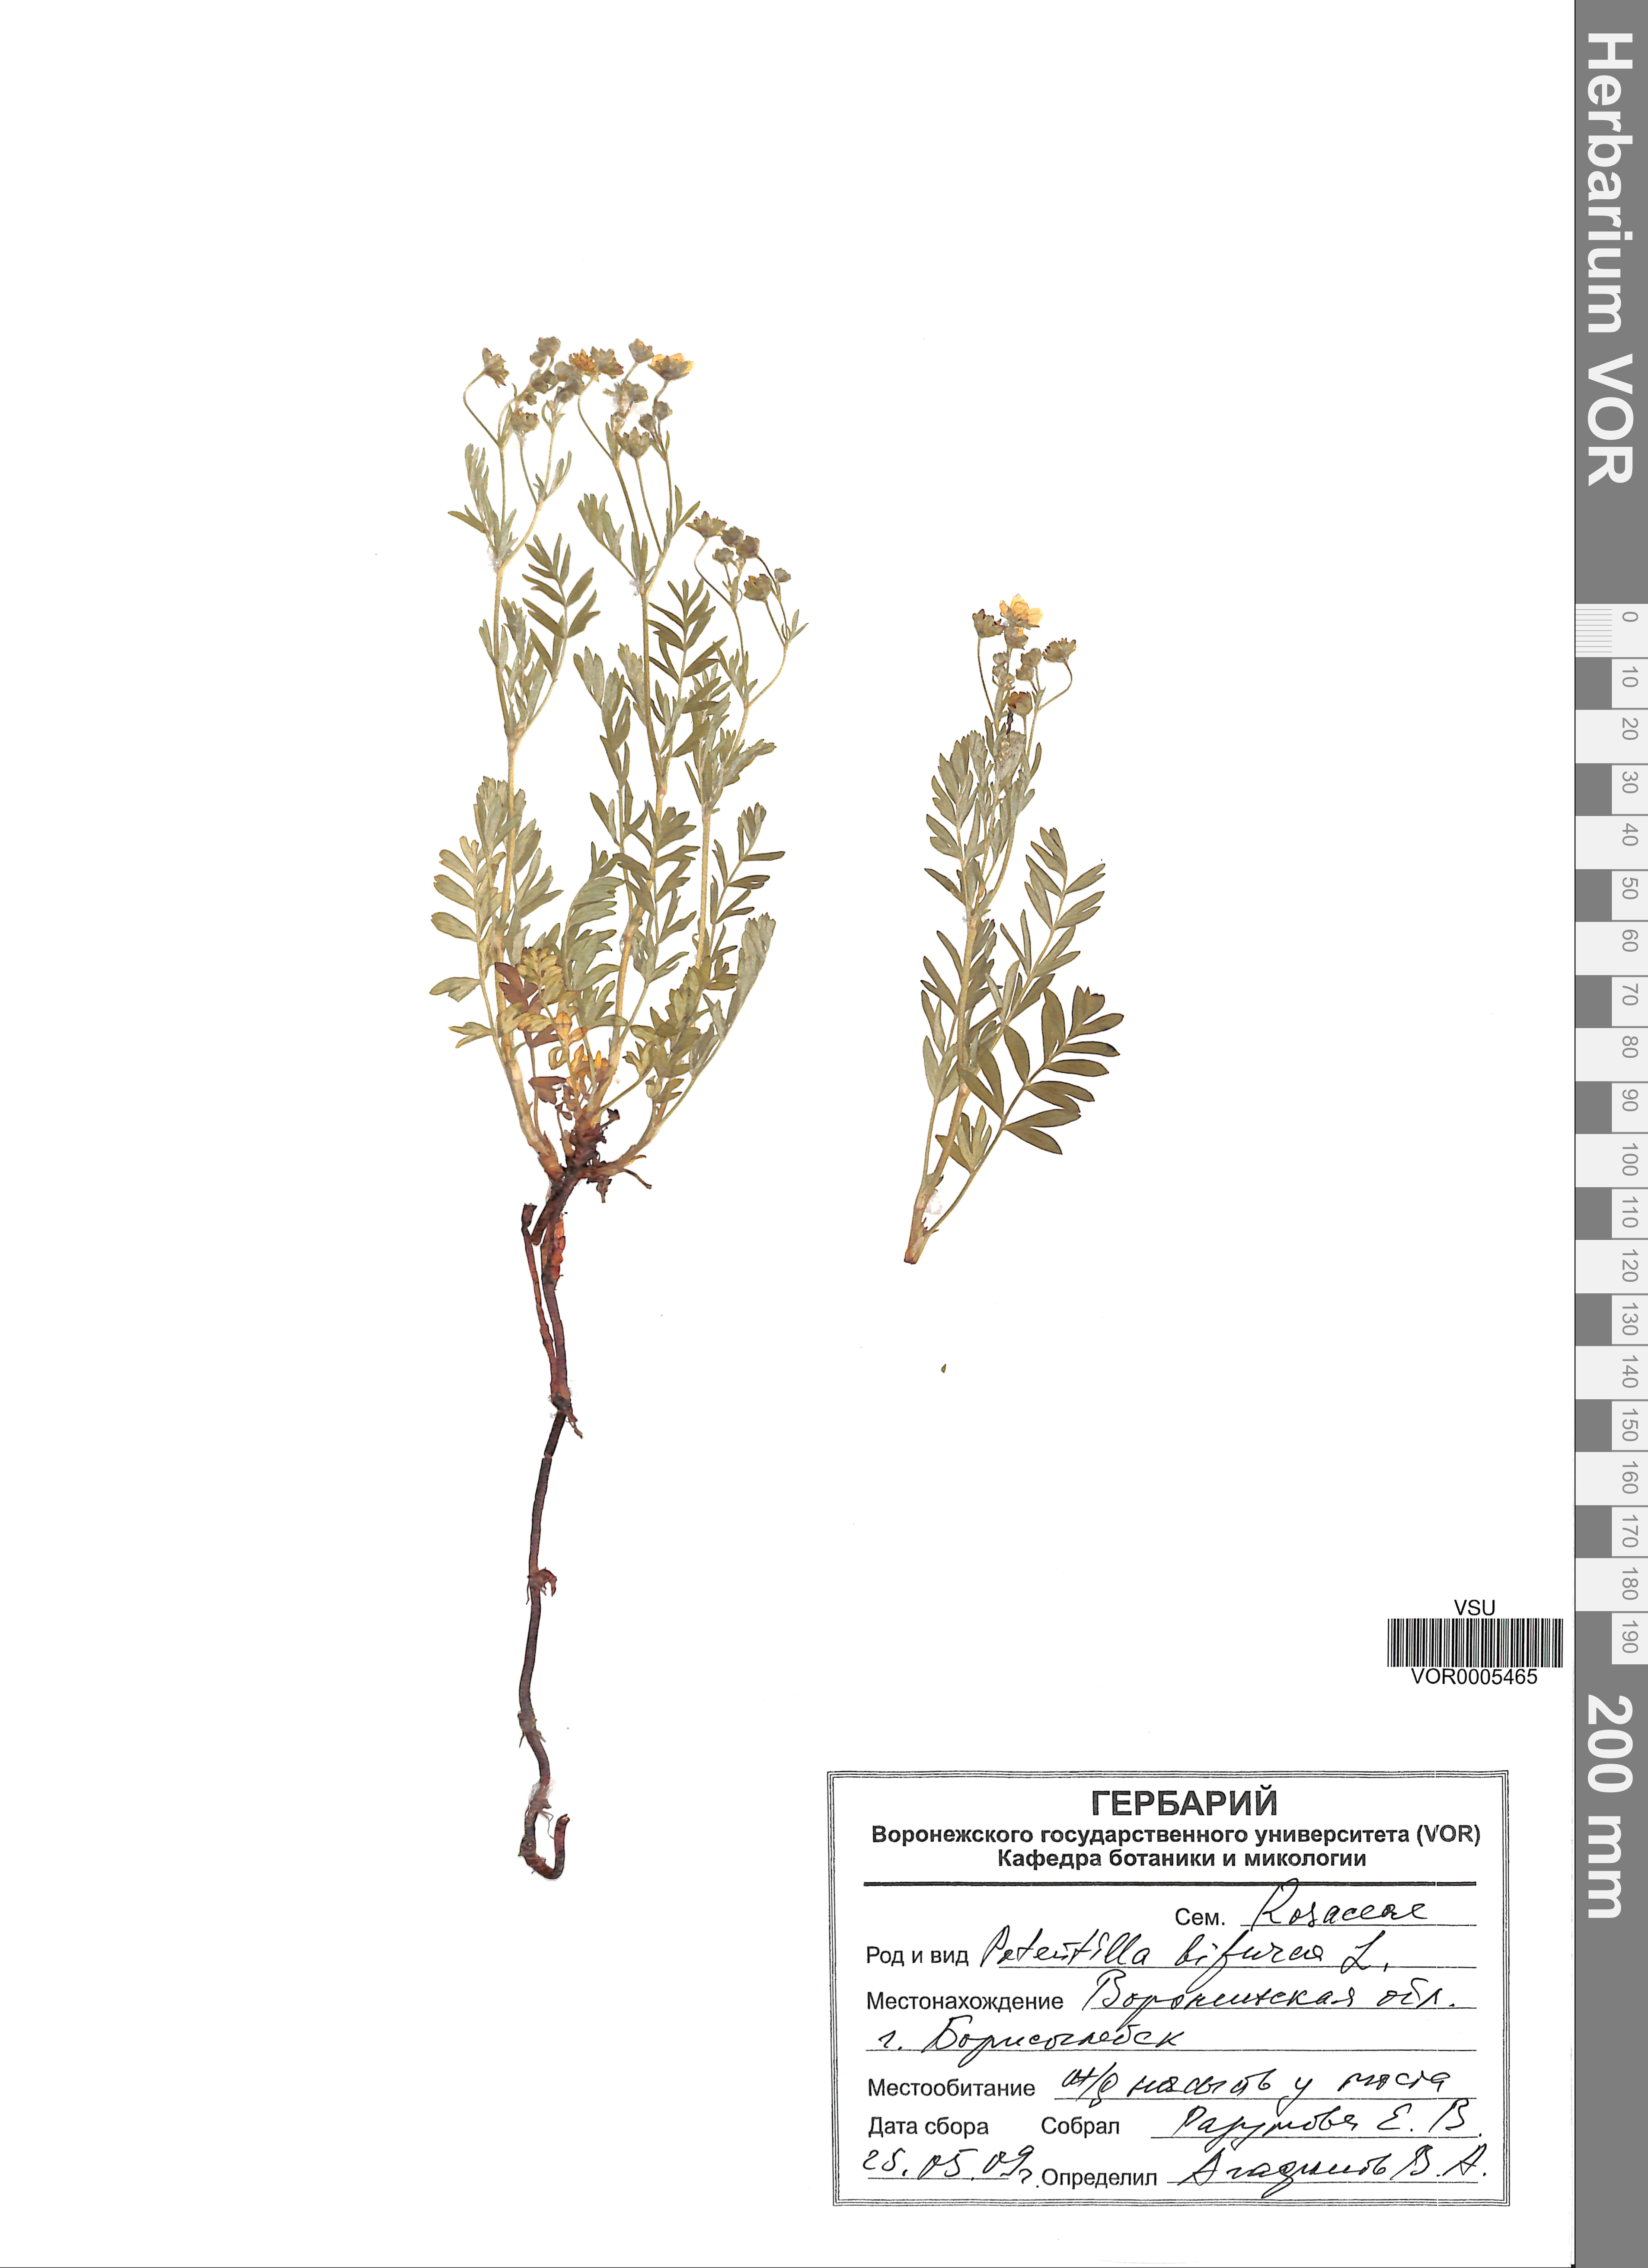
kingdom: Plantae
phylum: Tracheophyta
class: Magnoliopsida
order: Rosales
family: Rosaceae
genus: Sibbaldianthe
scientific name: Sibbaldianthe bifurca
